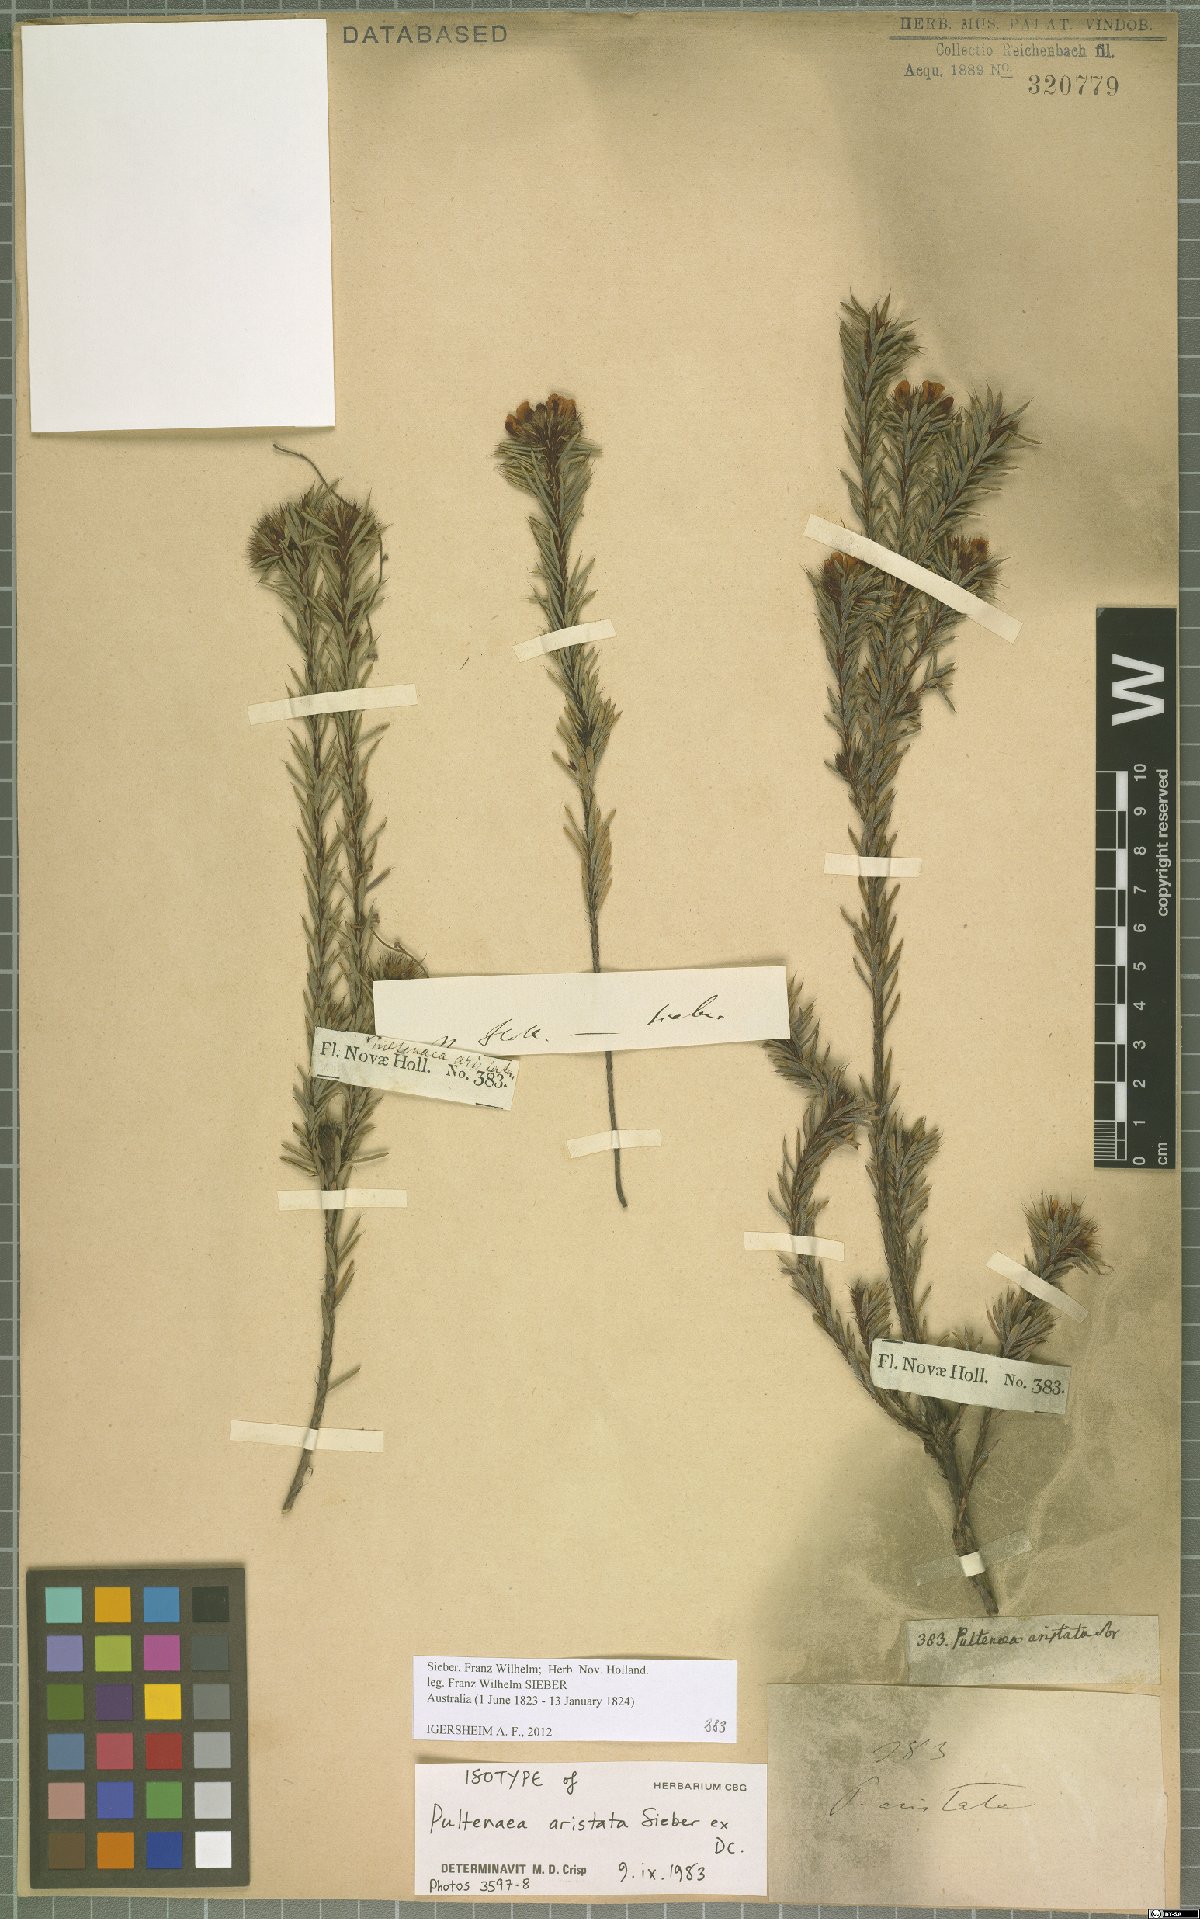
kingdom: Plantae
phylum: Tracheophyta
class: Magnoliopsida
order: Fabales
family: Fabaceae
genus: Pultenaea
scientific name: Pultenaea aristata
